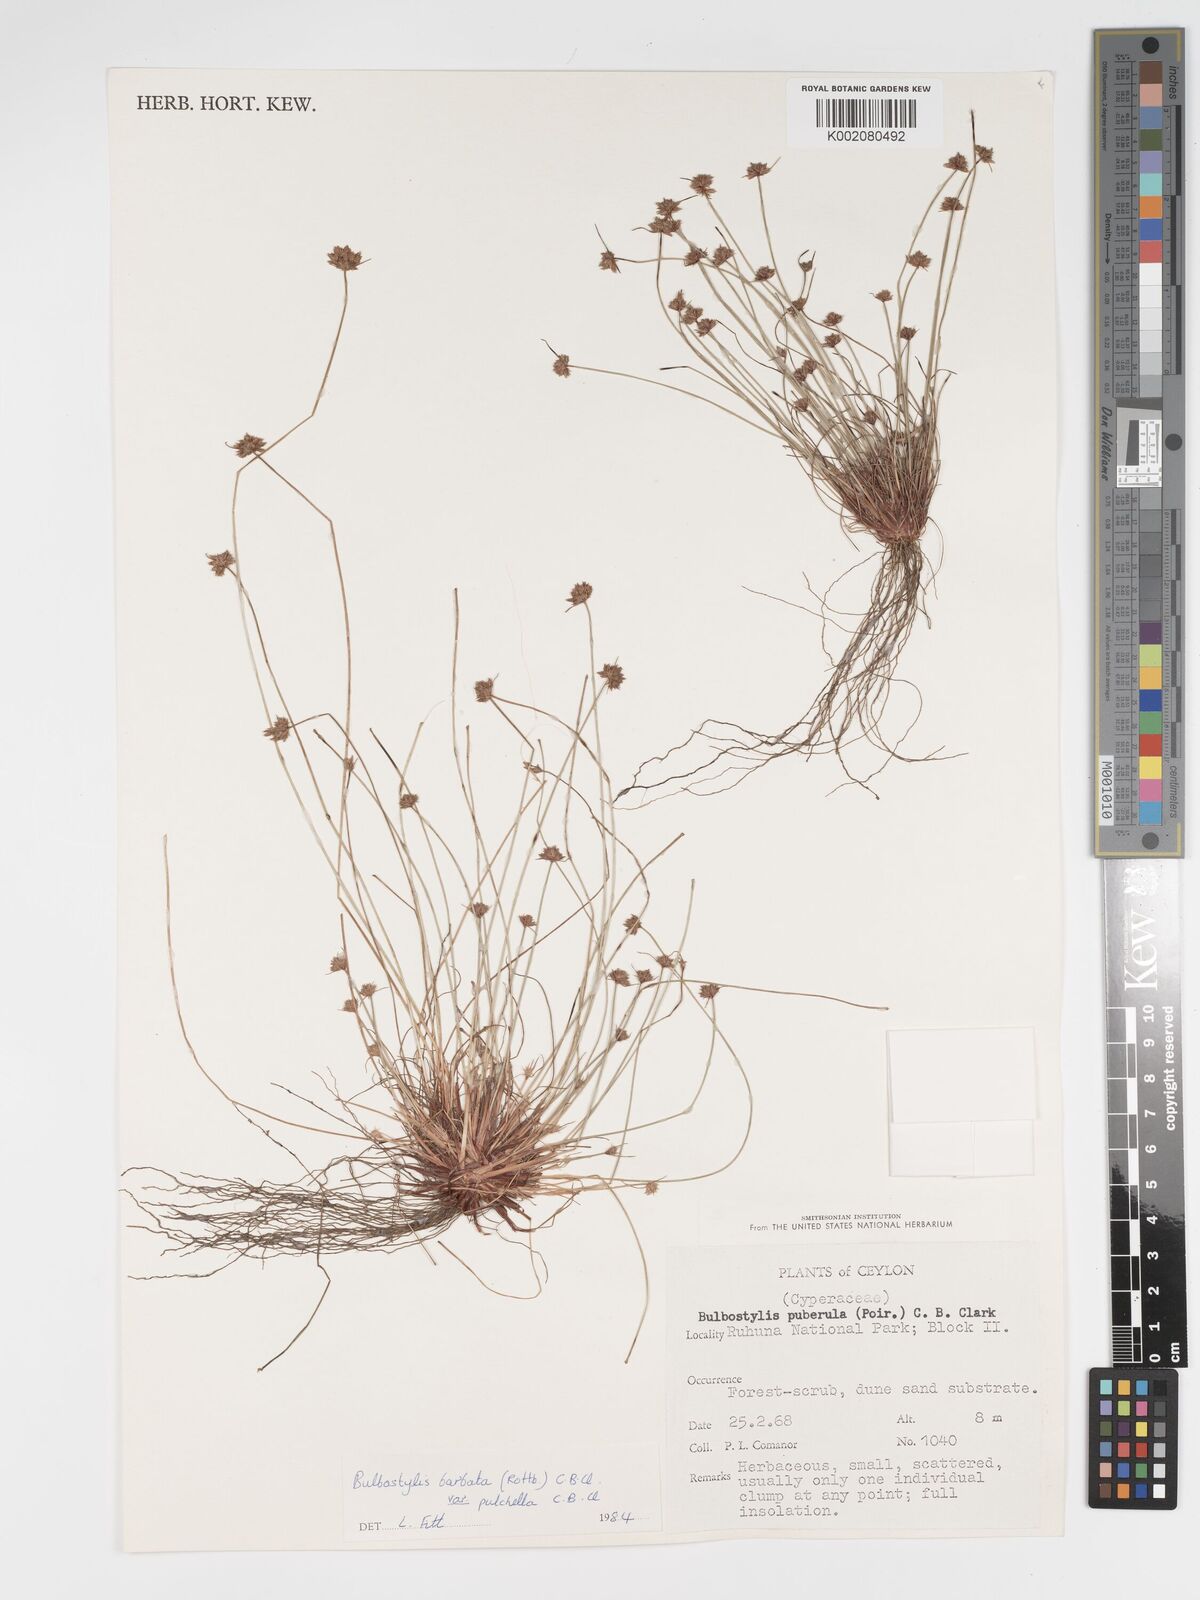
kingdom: Plantae
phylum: Tracheophyta
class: Liliopsida
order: Poales
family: Cyperaceae
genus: Bulbostylis
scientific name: Bulbostylis barbata
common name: Watergrass
